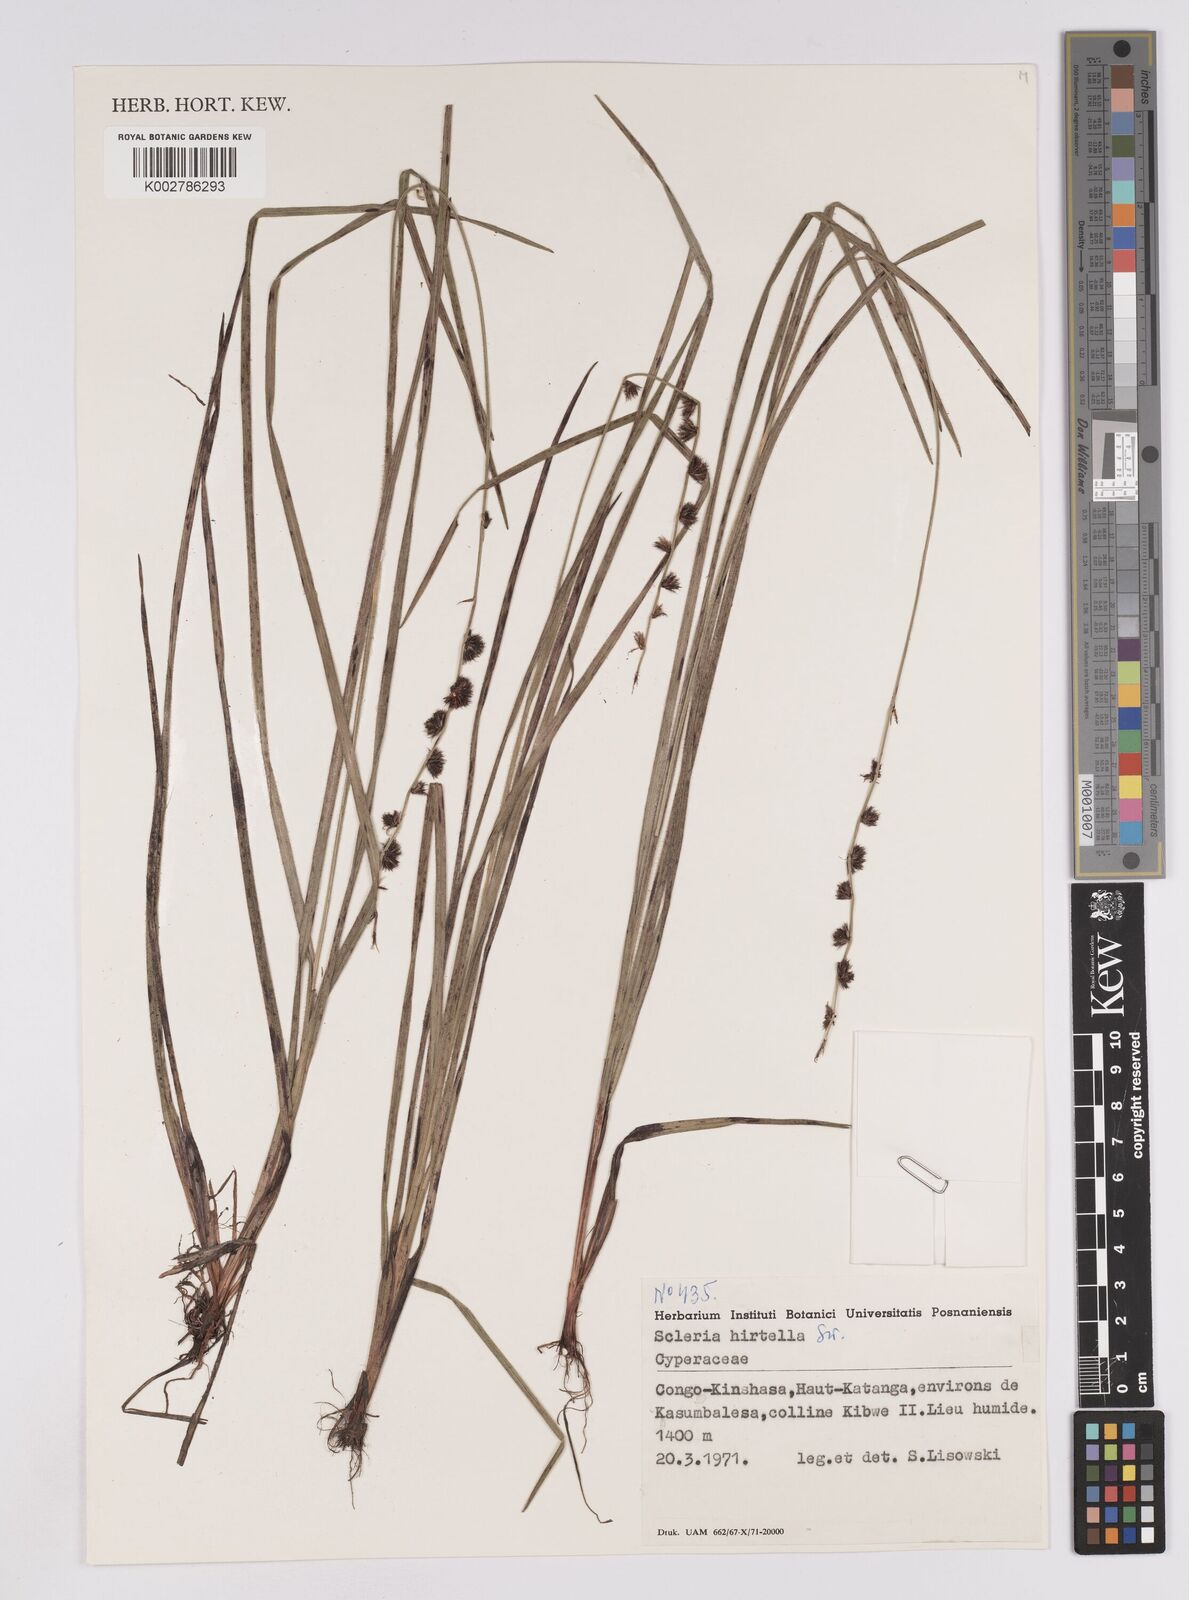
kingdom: Plantae
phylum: Tracheophyta
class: Liliopsida
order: Poales
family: Cyperaceae
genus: Scleria
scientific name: Scleria brownii
